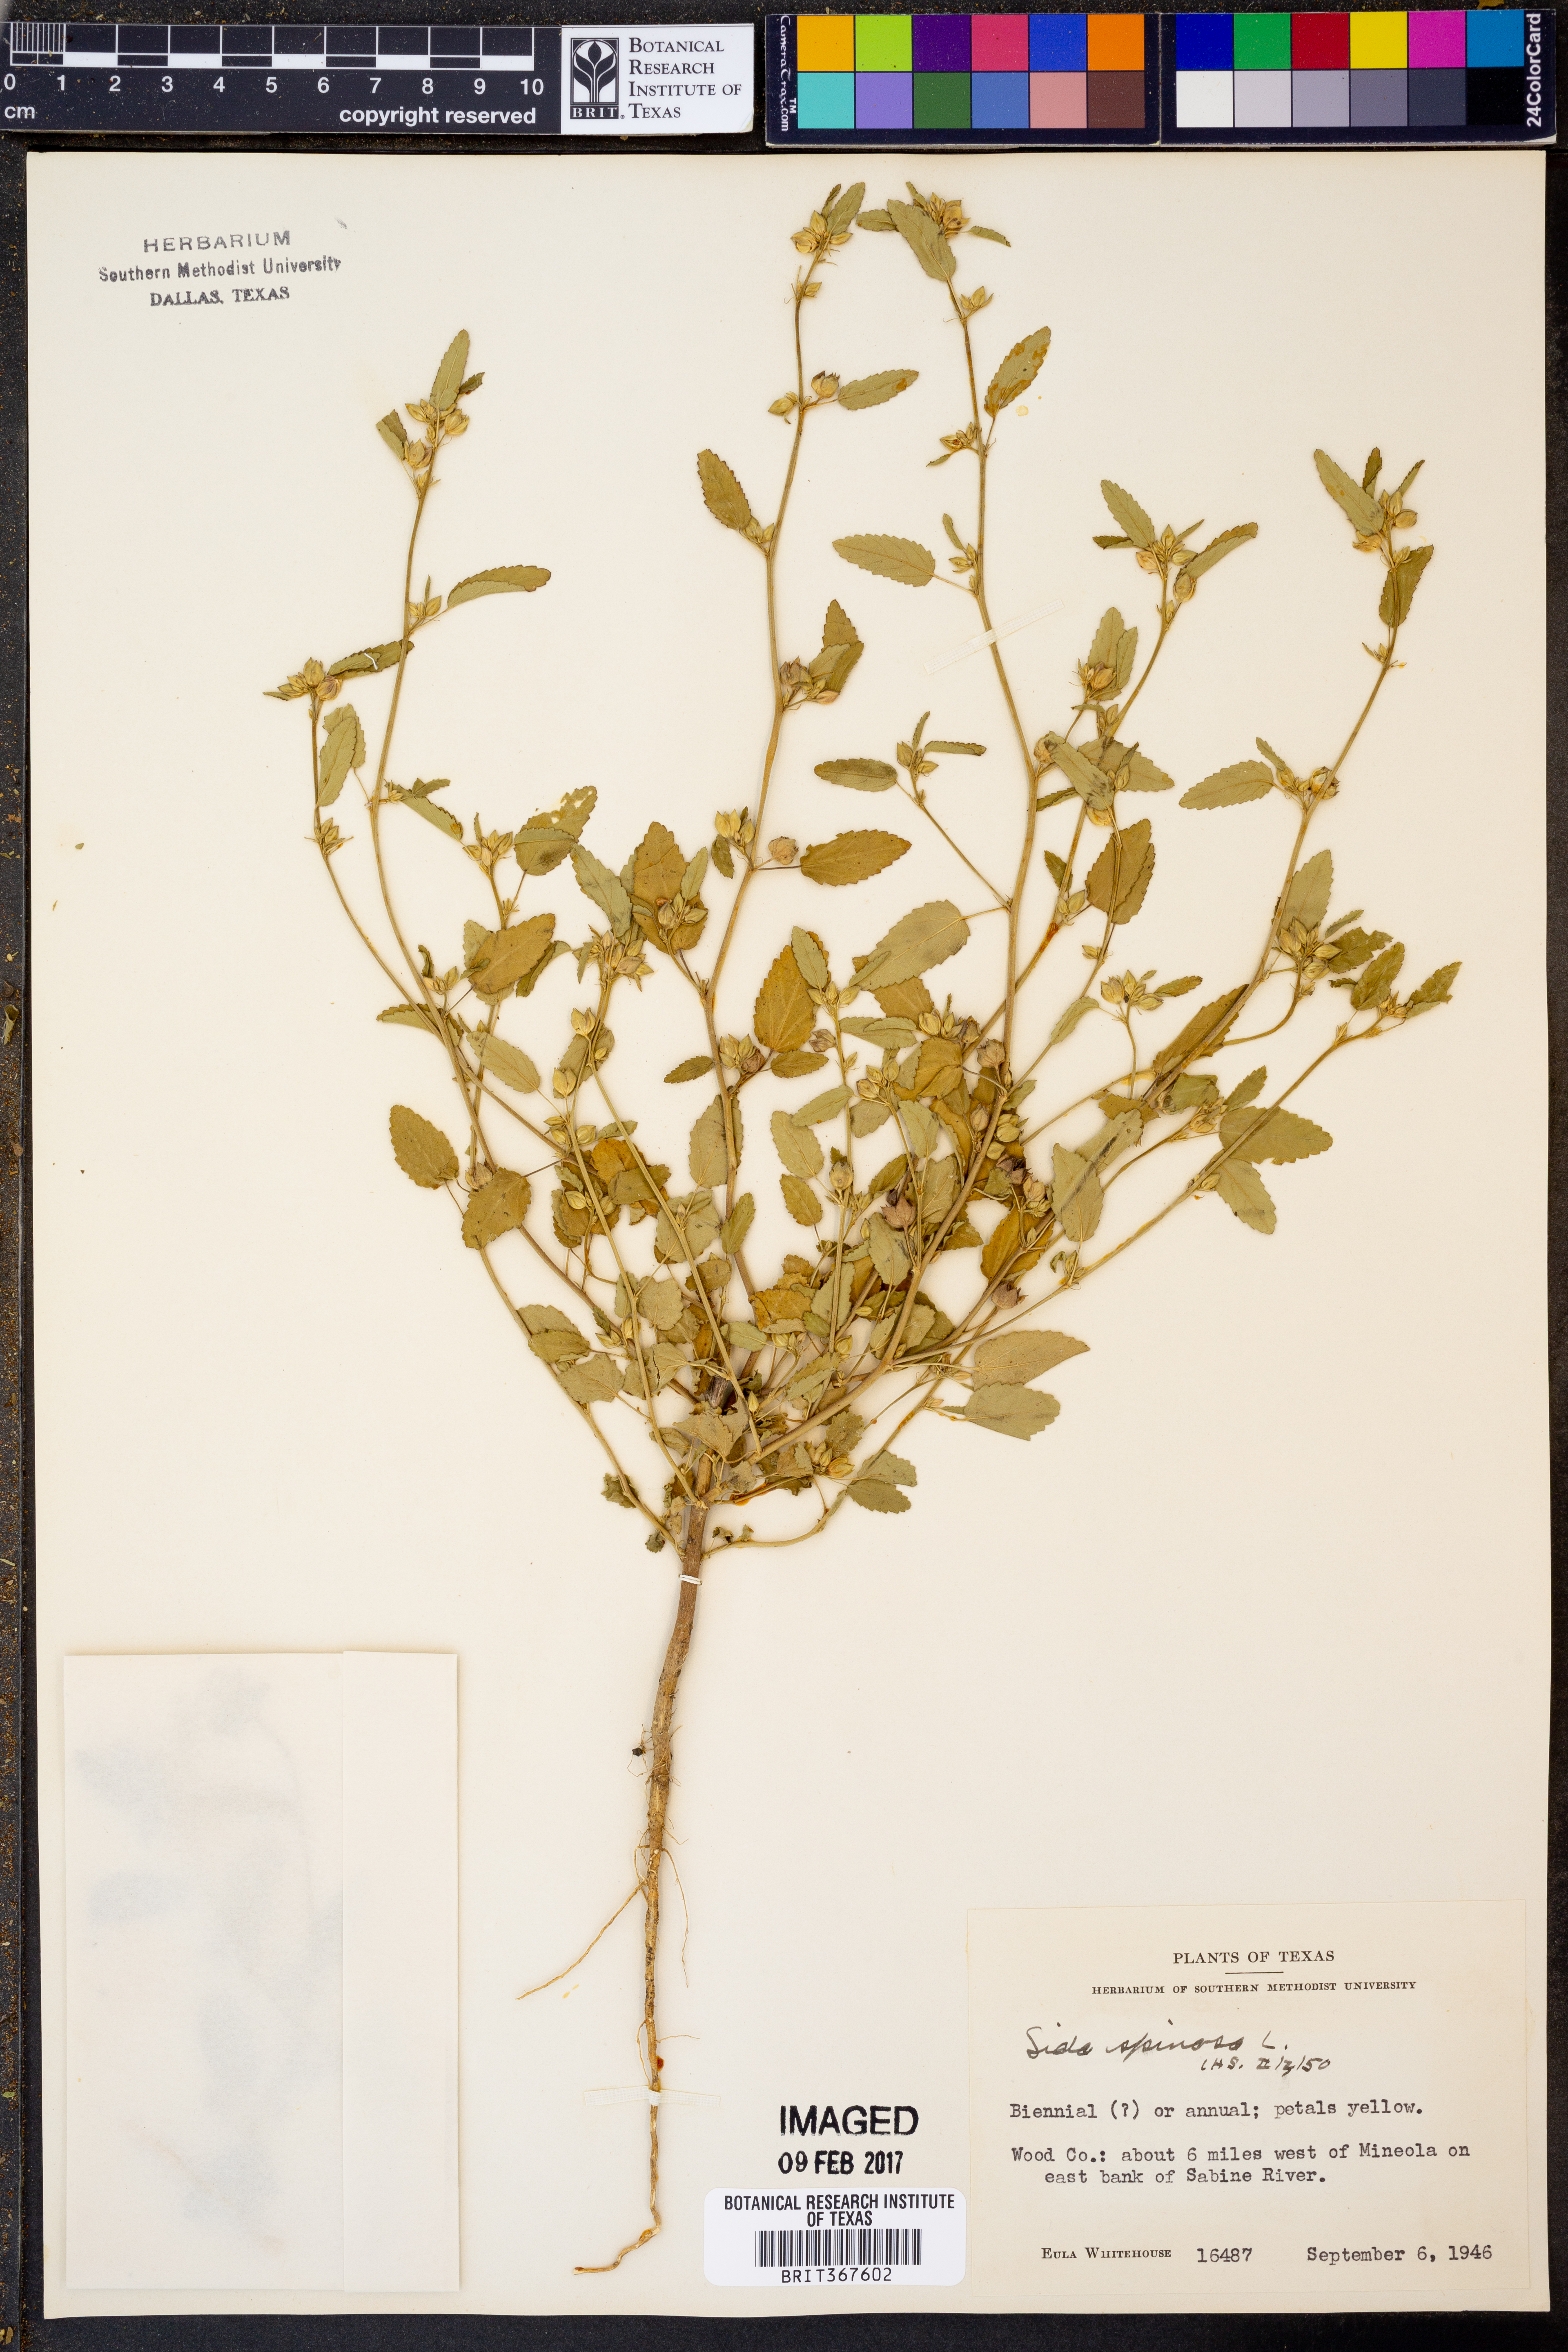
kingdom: Plantae
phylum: Tracheophyta
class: Magnoliopsida
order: Malvales
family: Malvaceae
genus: Sida
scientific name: Sida spinosa
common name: Prickly fanpetals
